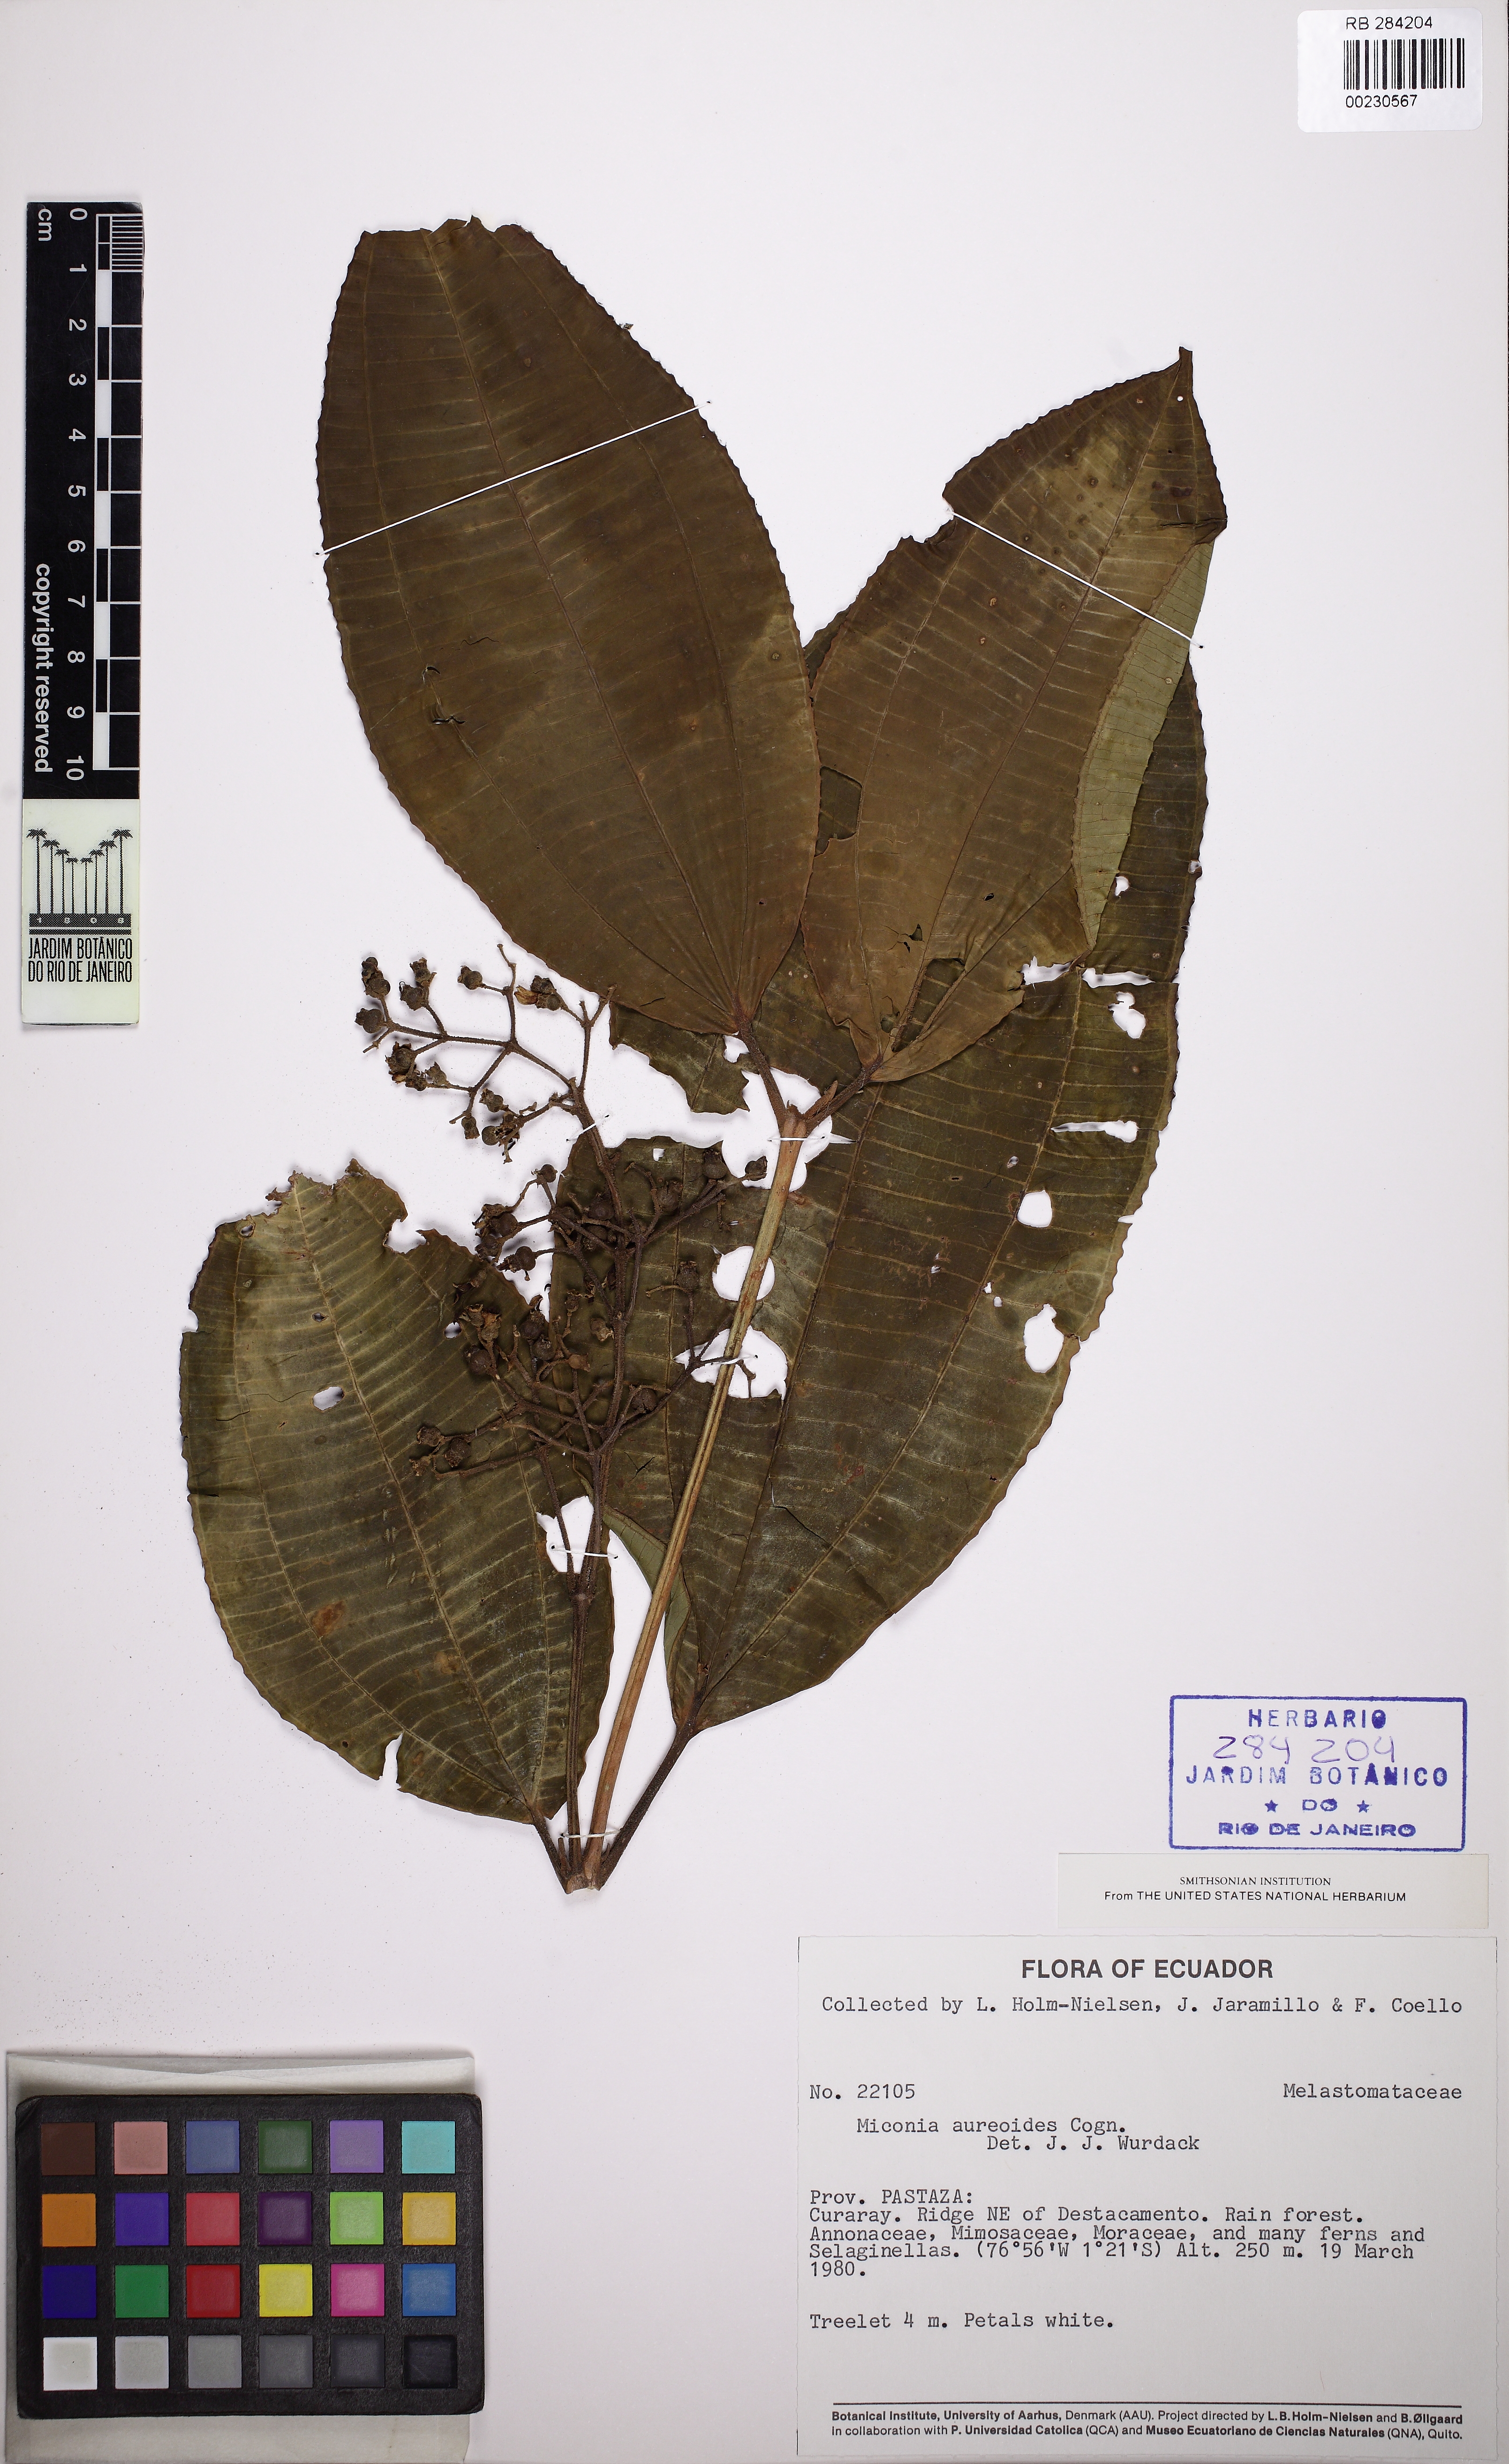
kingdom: Plantae
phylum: Tracheophyta
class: Magnoliopsida
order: Myrtales
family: Melastomataceae
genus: Miconia
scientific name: Miconia aureoides
